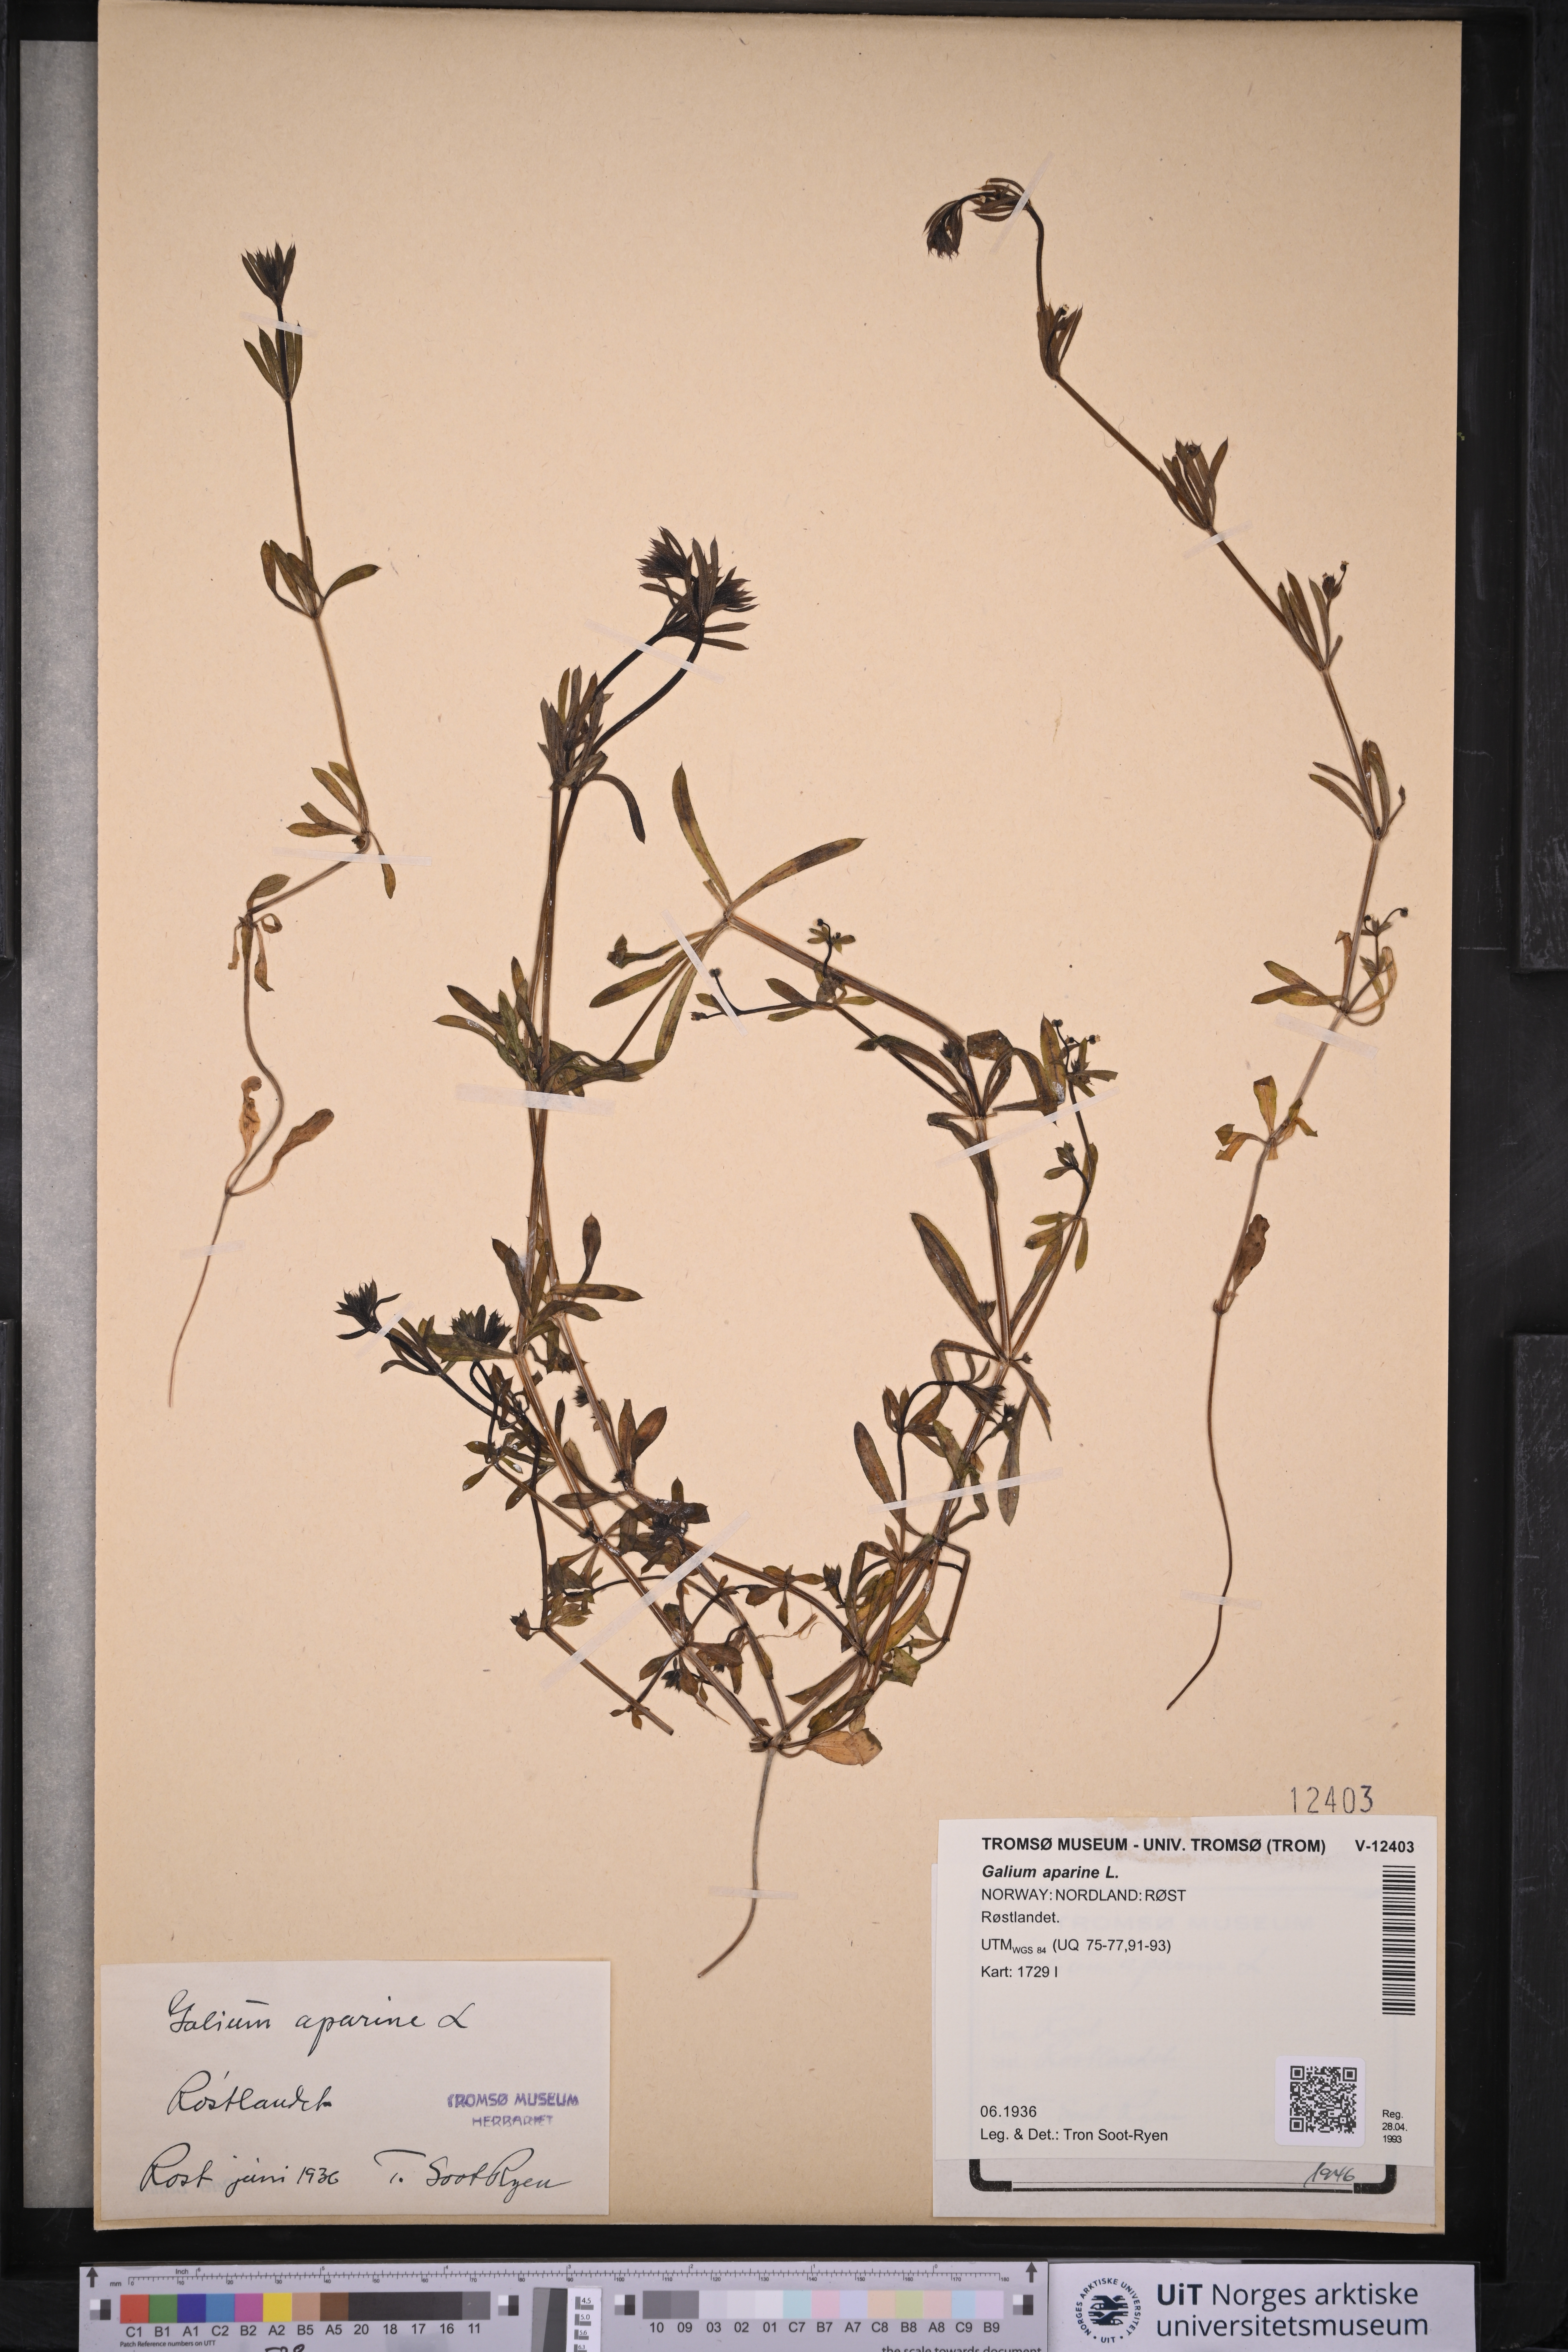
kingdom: Plantae
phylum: Tracheophyta
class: Magnoliopsida
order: Gentianales
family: Rubiaceae
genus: Galium
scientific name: Galium aparine
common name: Cleavers
